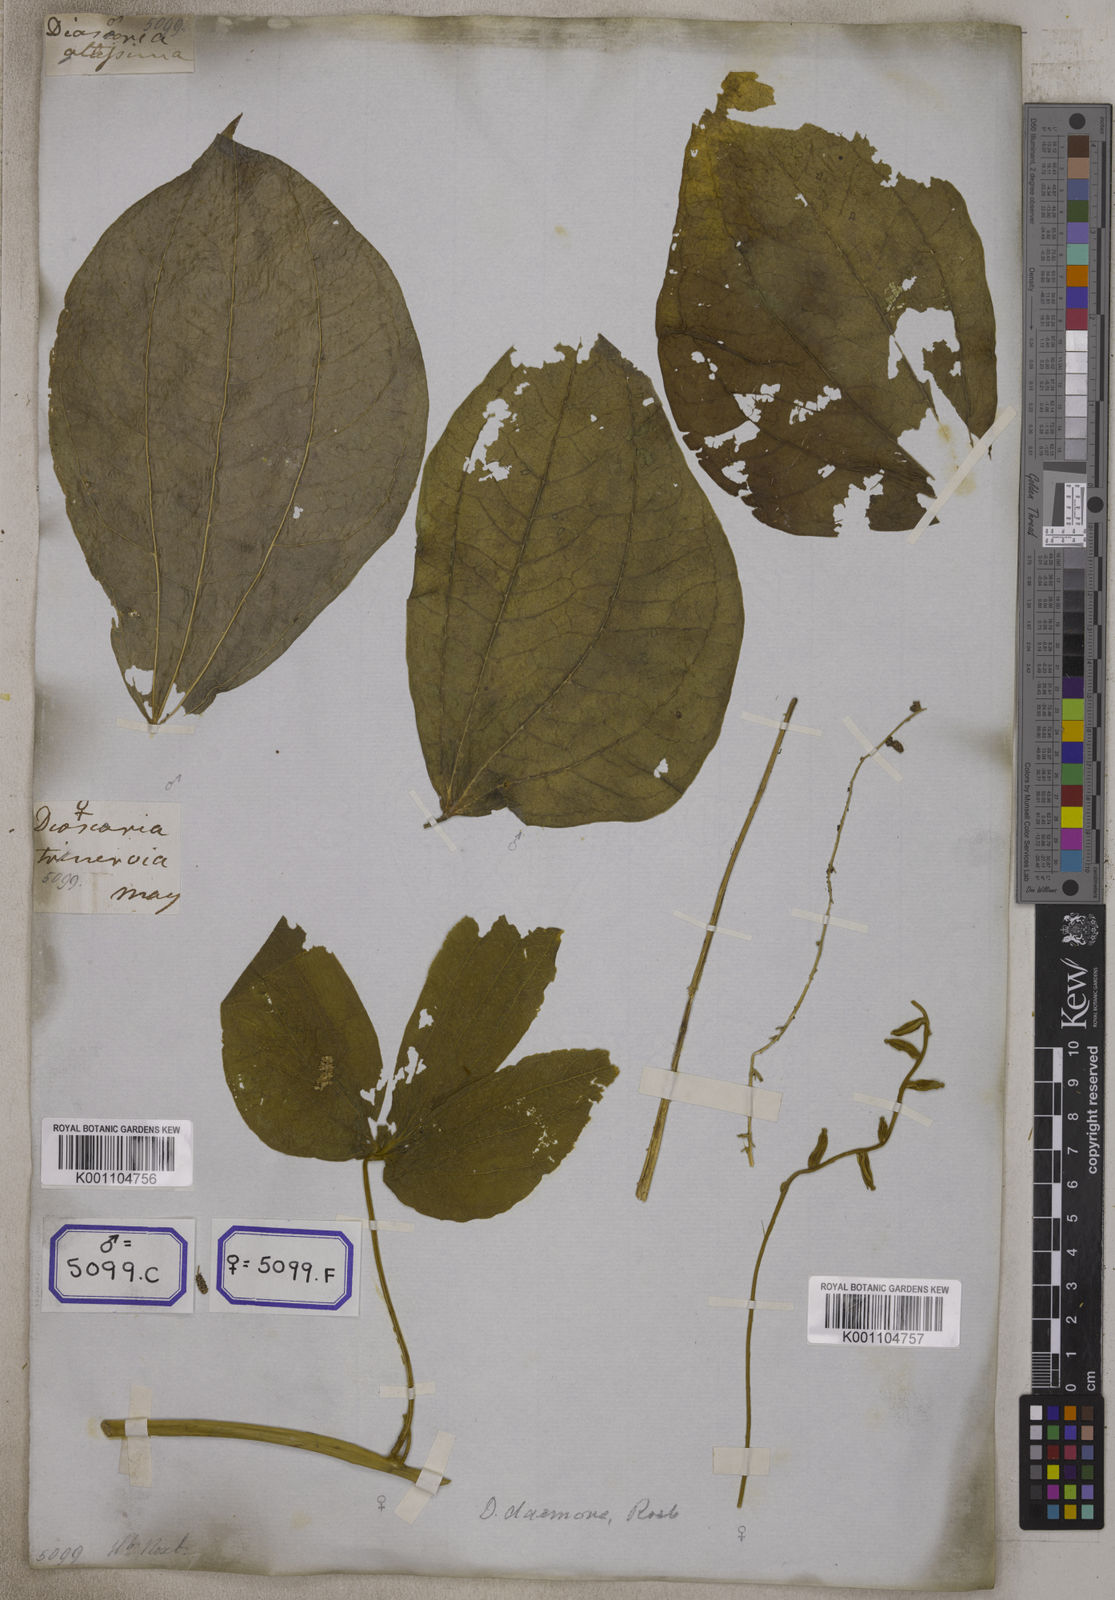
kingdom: Plantae
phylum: Tracheophyta
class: Liliopsida
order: Dioscoreales
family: Dioscoreaceae
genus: Dioscorea
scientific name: Dioscorea
